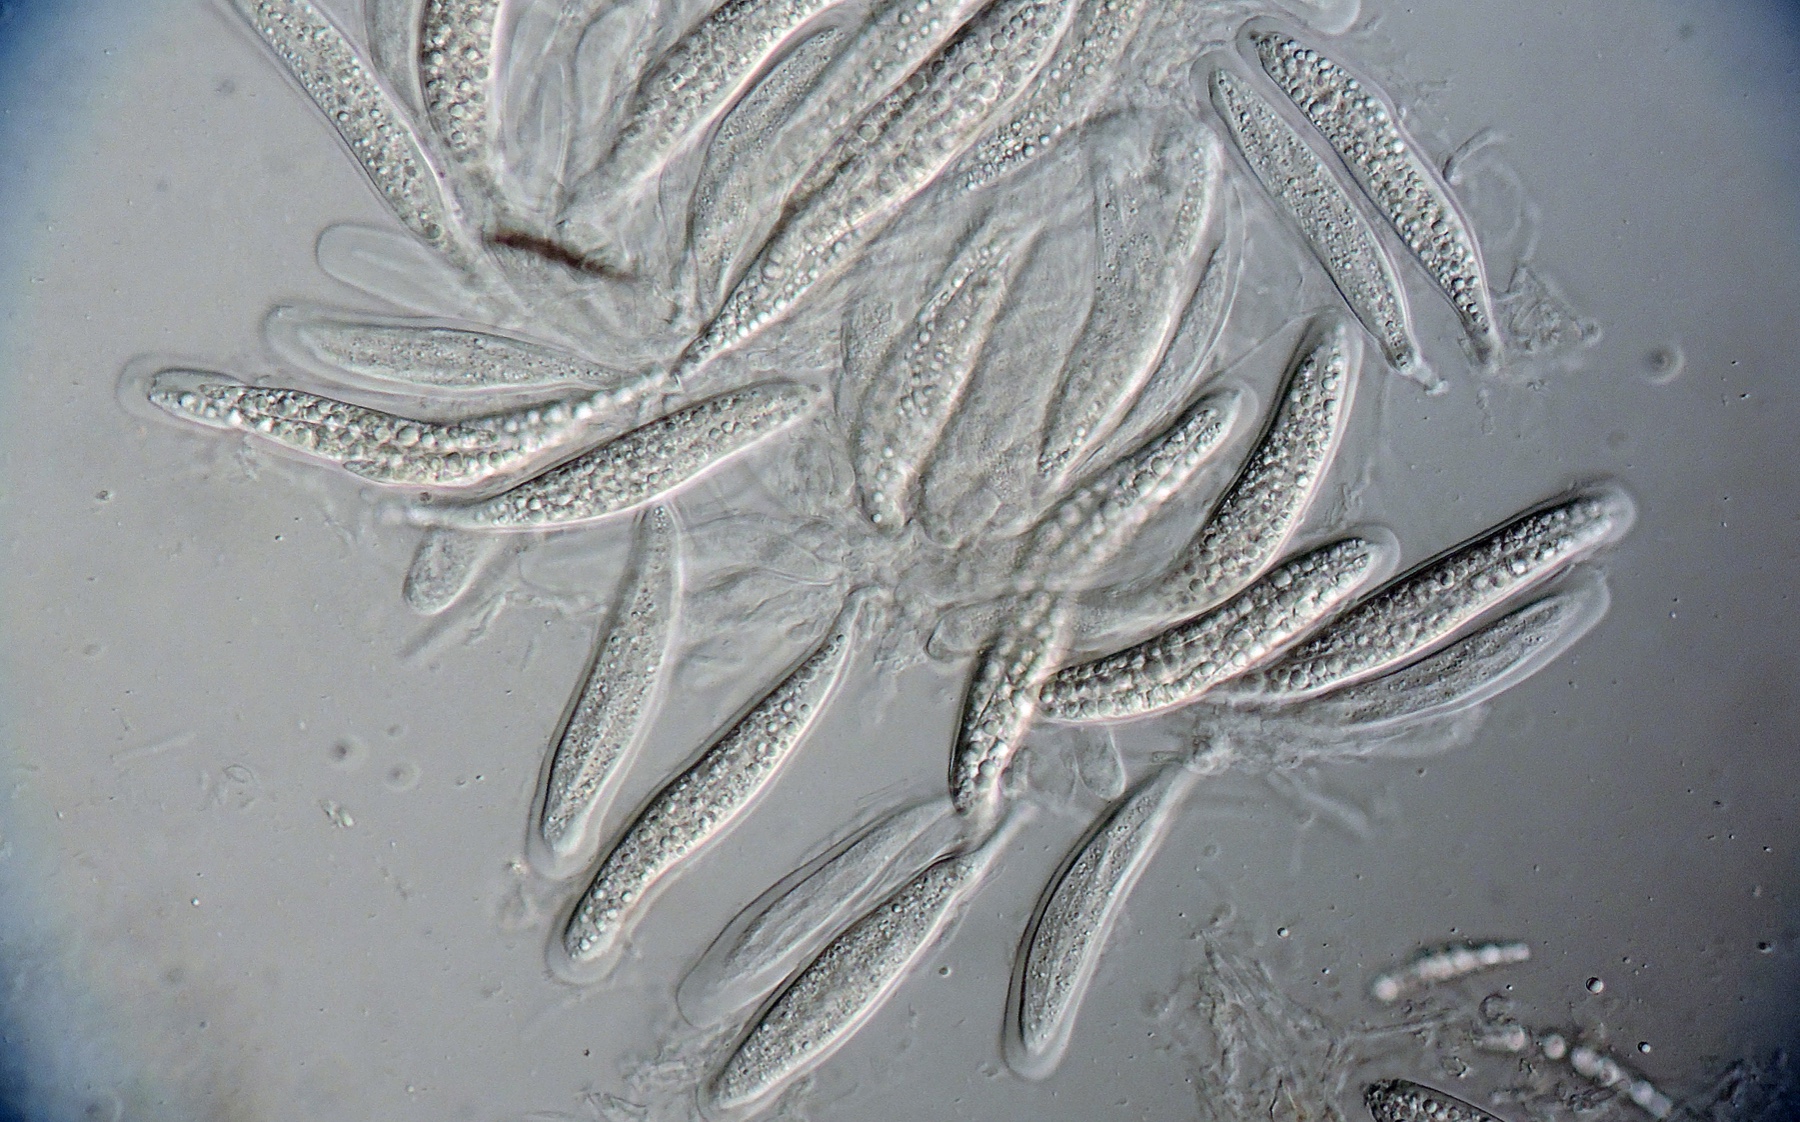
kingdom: Fungi
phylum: Ascomycota
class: Dothideomycetes
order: Tubeufiales
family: Tubeufiaceae
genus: Acanthostigmina
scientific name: Acanthostigmina minuta
